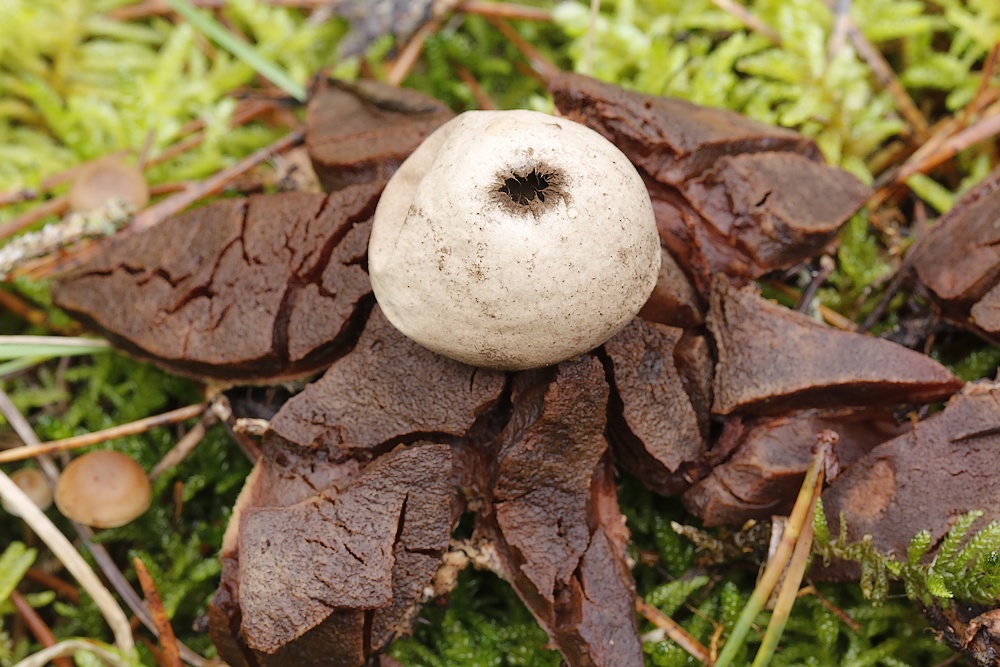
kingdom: Fungi
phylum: Basidiomycota
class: Agaricomycetes
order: Geastrales
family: Geastraceae
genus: Geastrum
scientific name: Geastrum rufescens
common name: kødfarvet stjernebold
